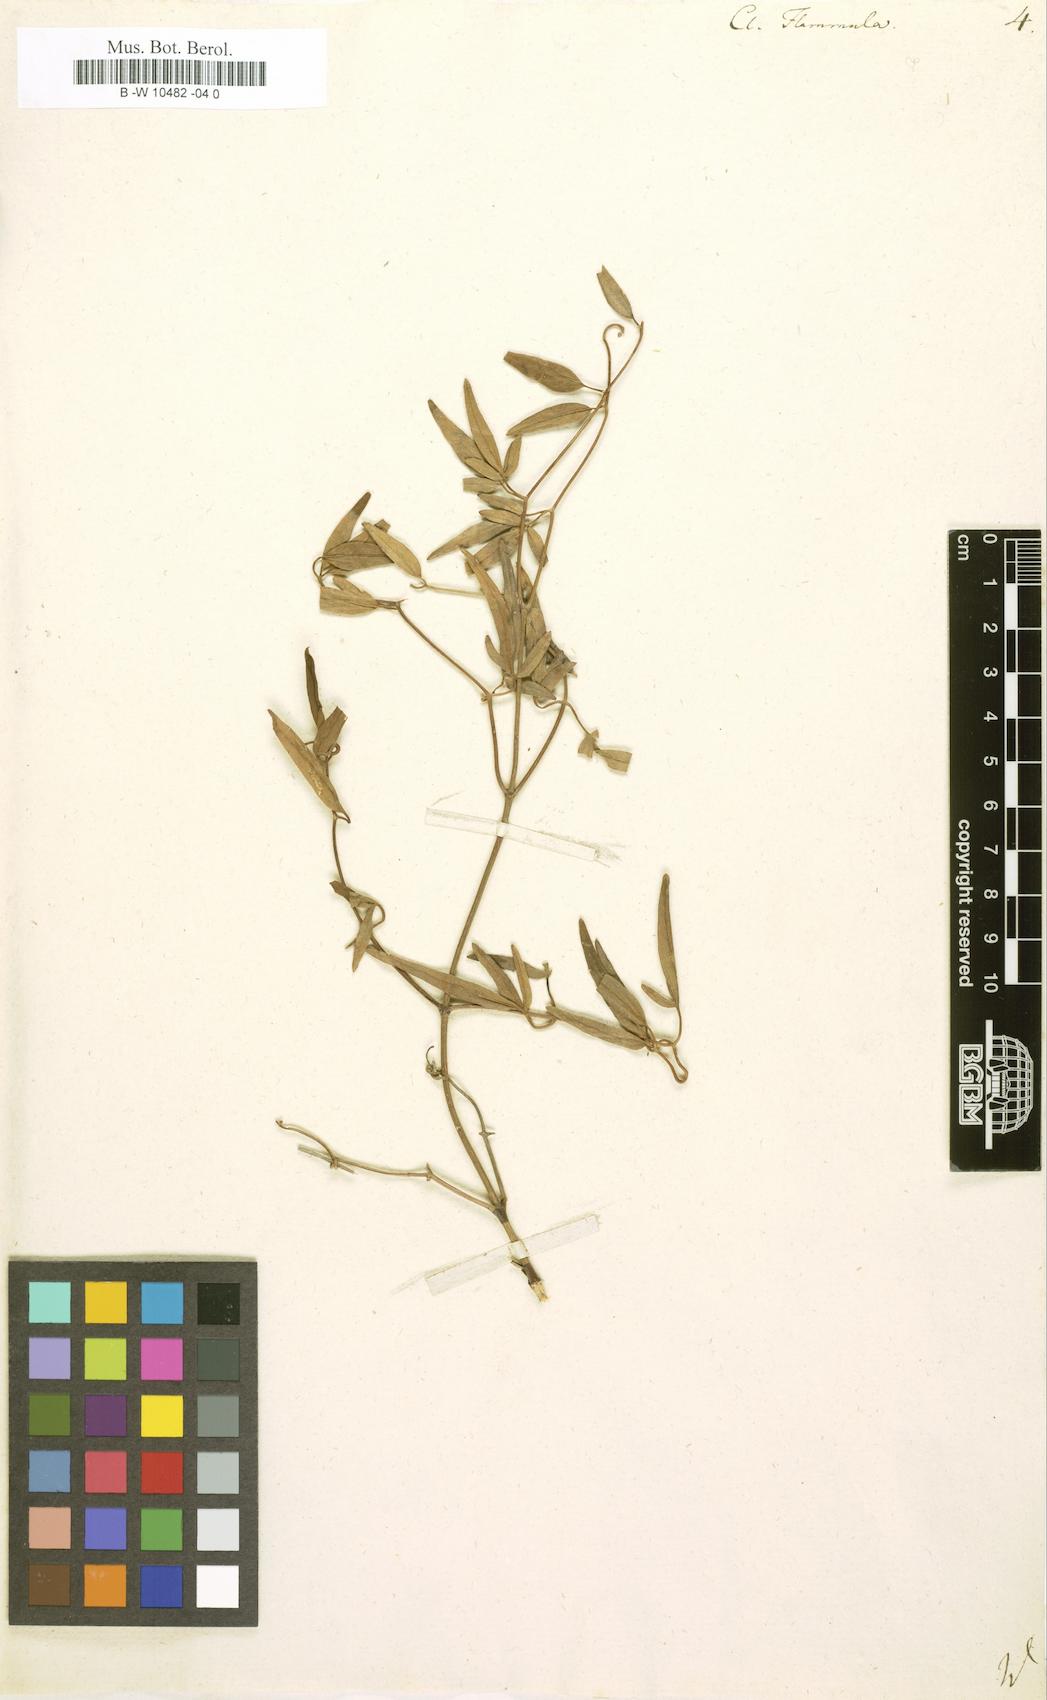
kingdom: Plantae
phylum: Tracheophyta
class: Magnoliopsida
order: Ranunculales
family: Ranunculaceae
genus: Clematis
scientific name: Clematis flammula
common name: Virgin's-bower
